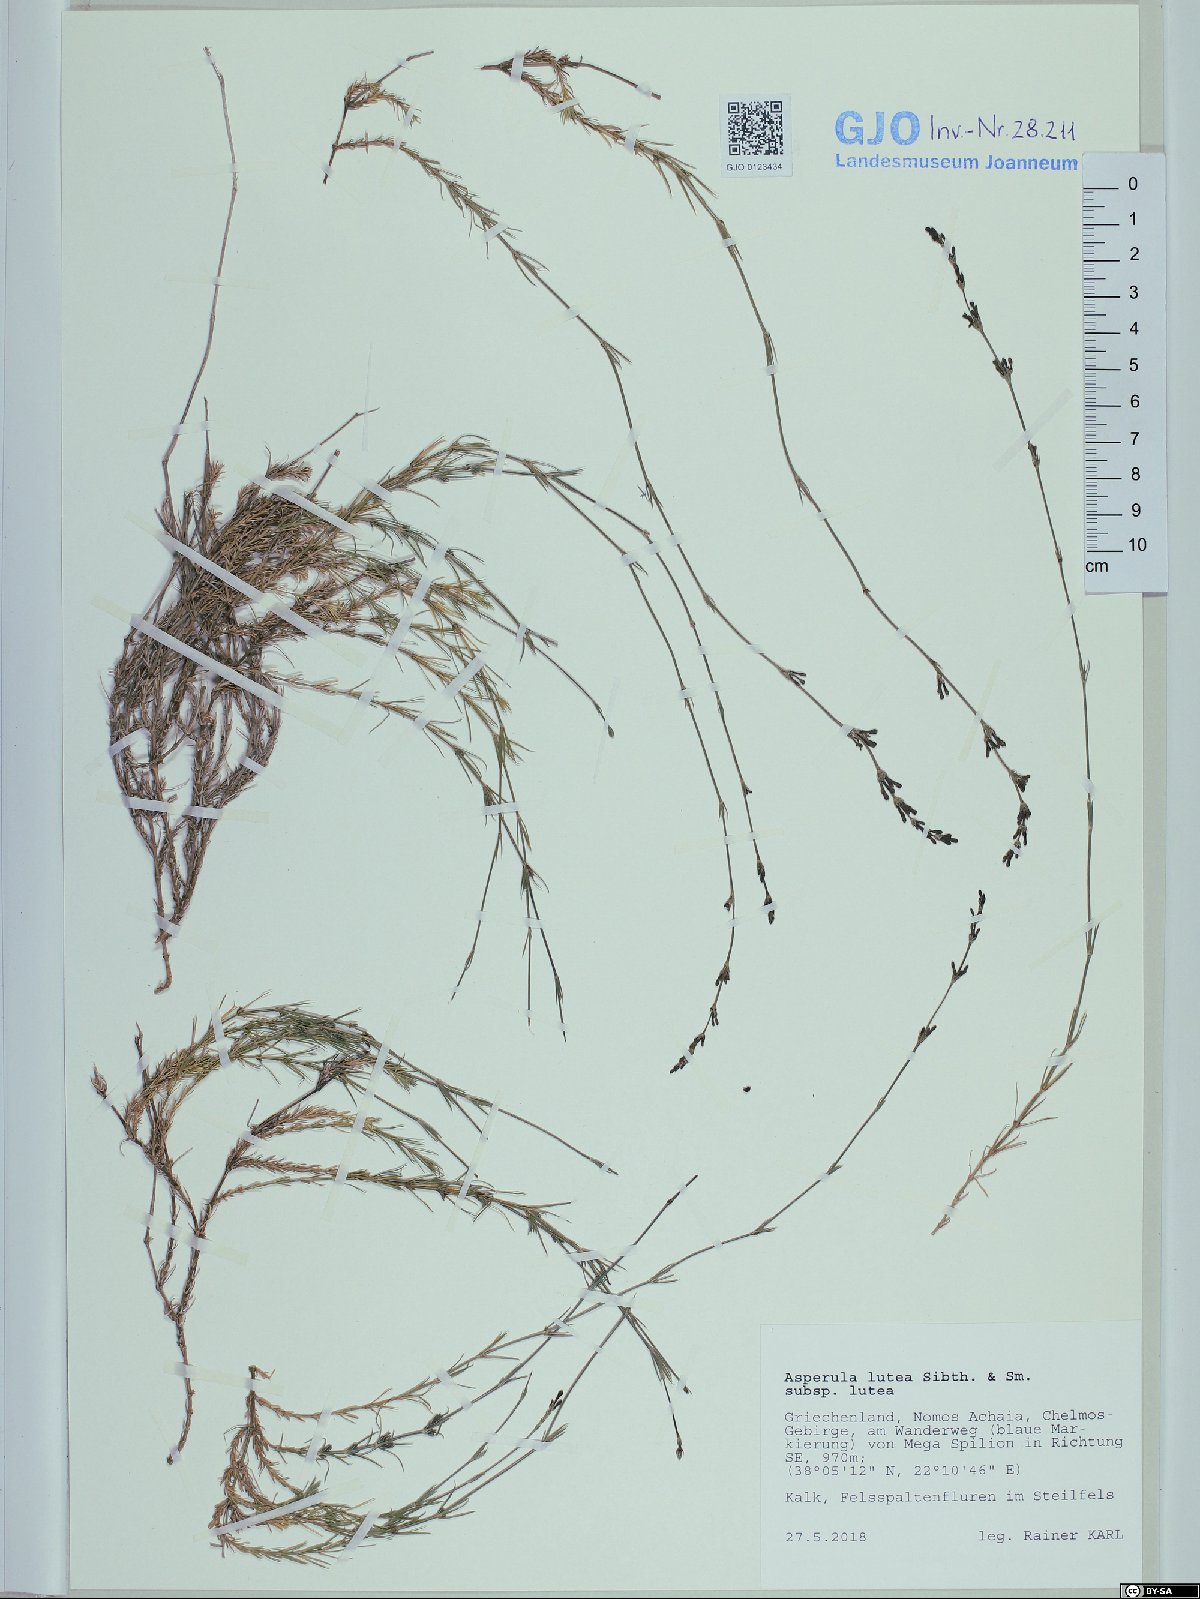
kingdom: Plantae
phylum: Tracheophyta
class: Magnoliopsida
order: Gentianales
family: Rubiaceae
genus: Cynanchica
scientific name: Cynanchica lutea
